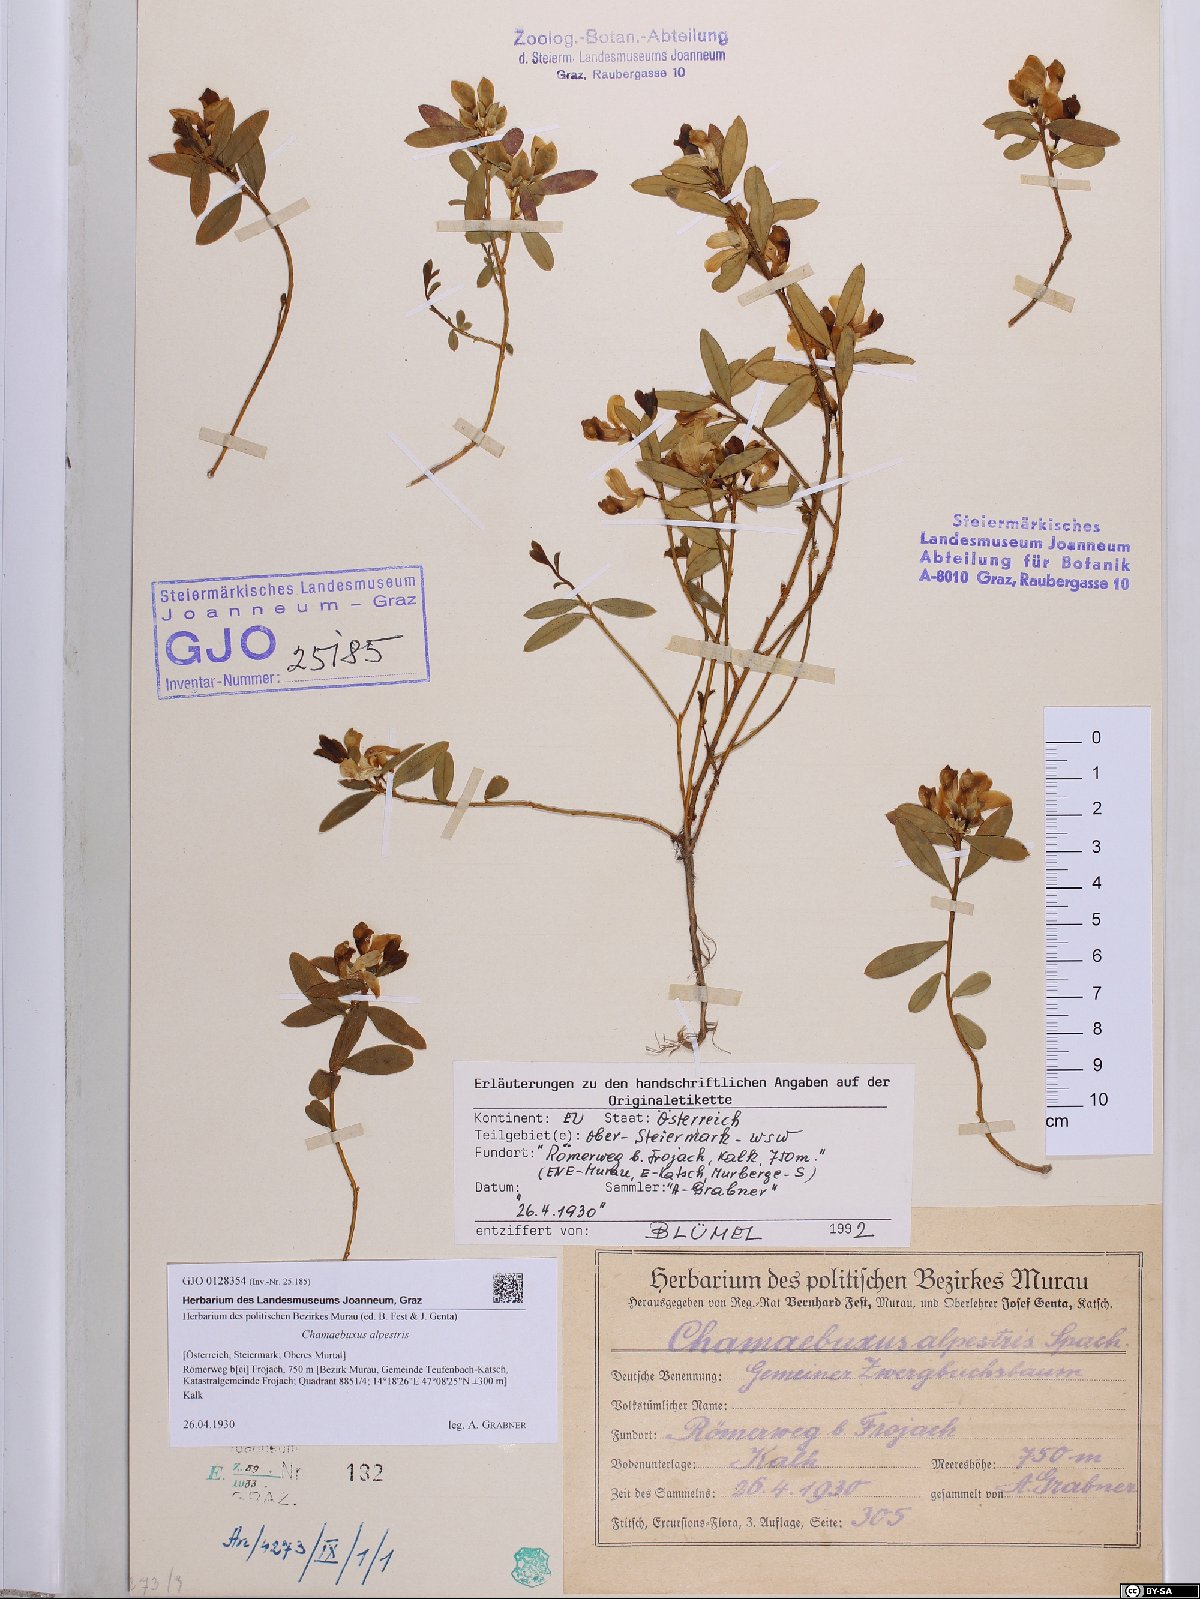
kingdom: Plantae
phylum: Tracheophyta
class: Magnoliopsida
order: Fabales
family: Polygalaceae
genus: Polygaloides
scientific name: Polygaloides chamaebuxus
